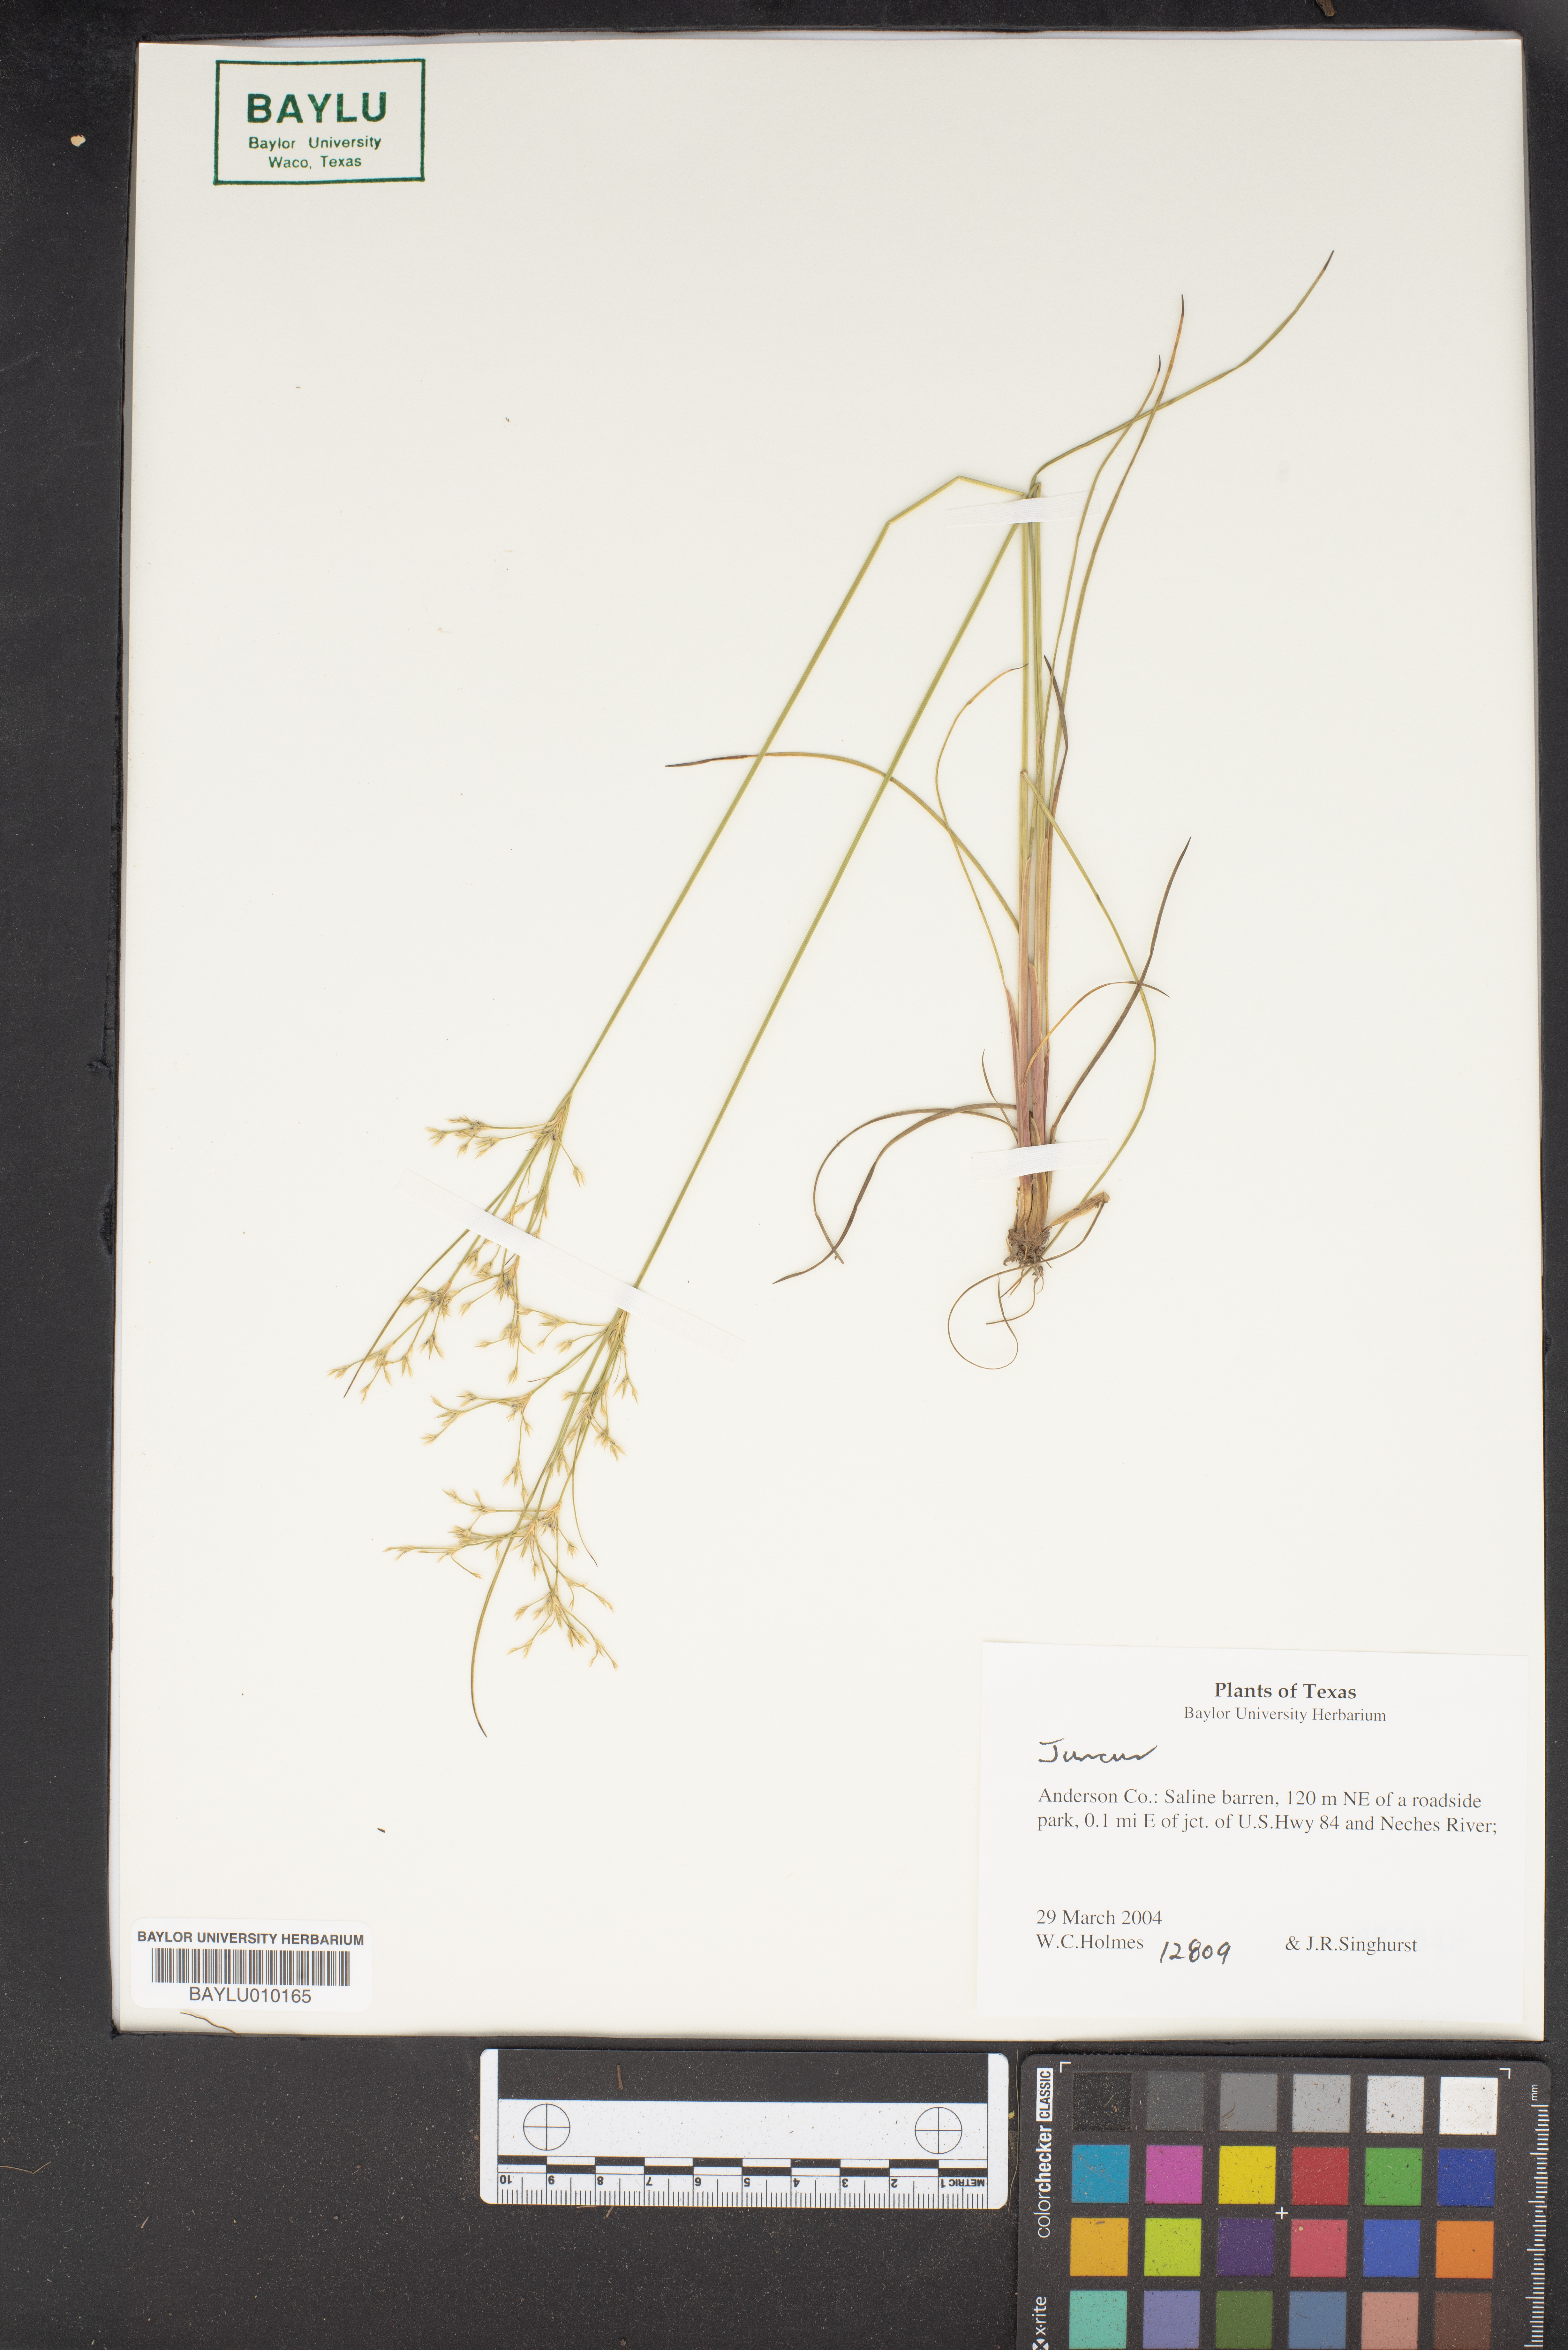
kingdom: Plantae
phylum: Tracheophyta
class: Liliopsida
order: Poales
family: Juncaceae
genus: Juncus
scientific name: Juncus
